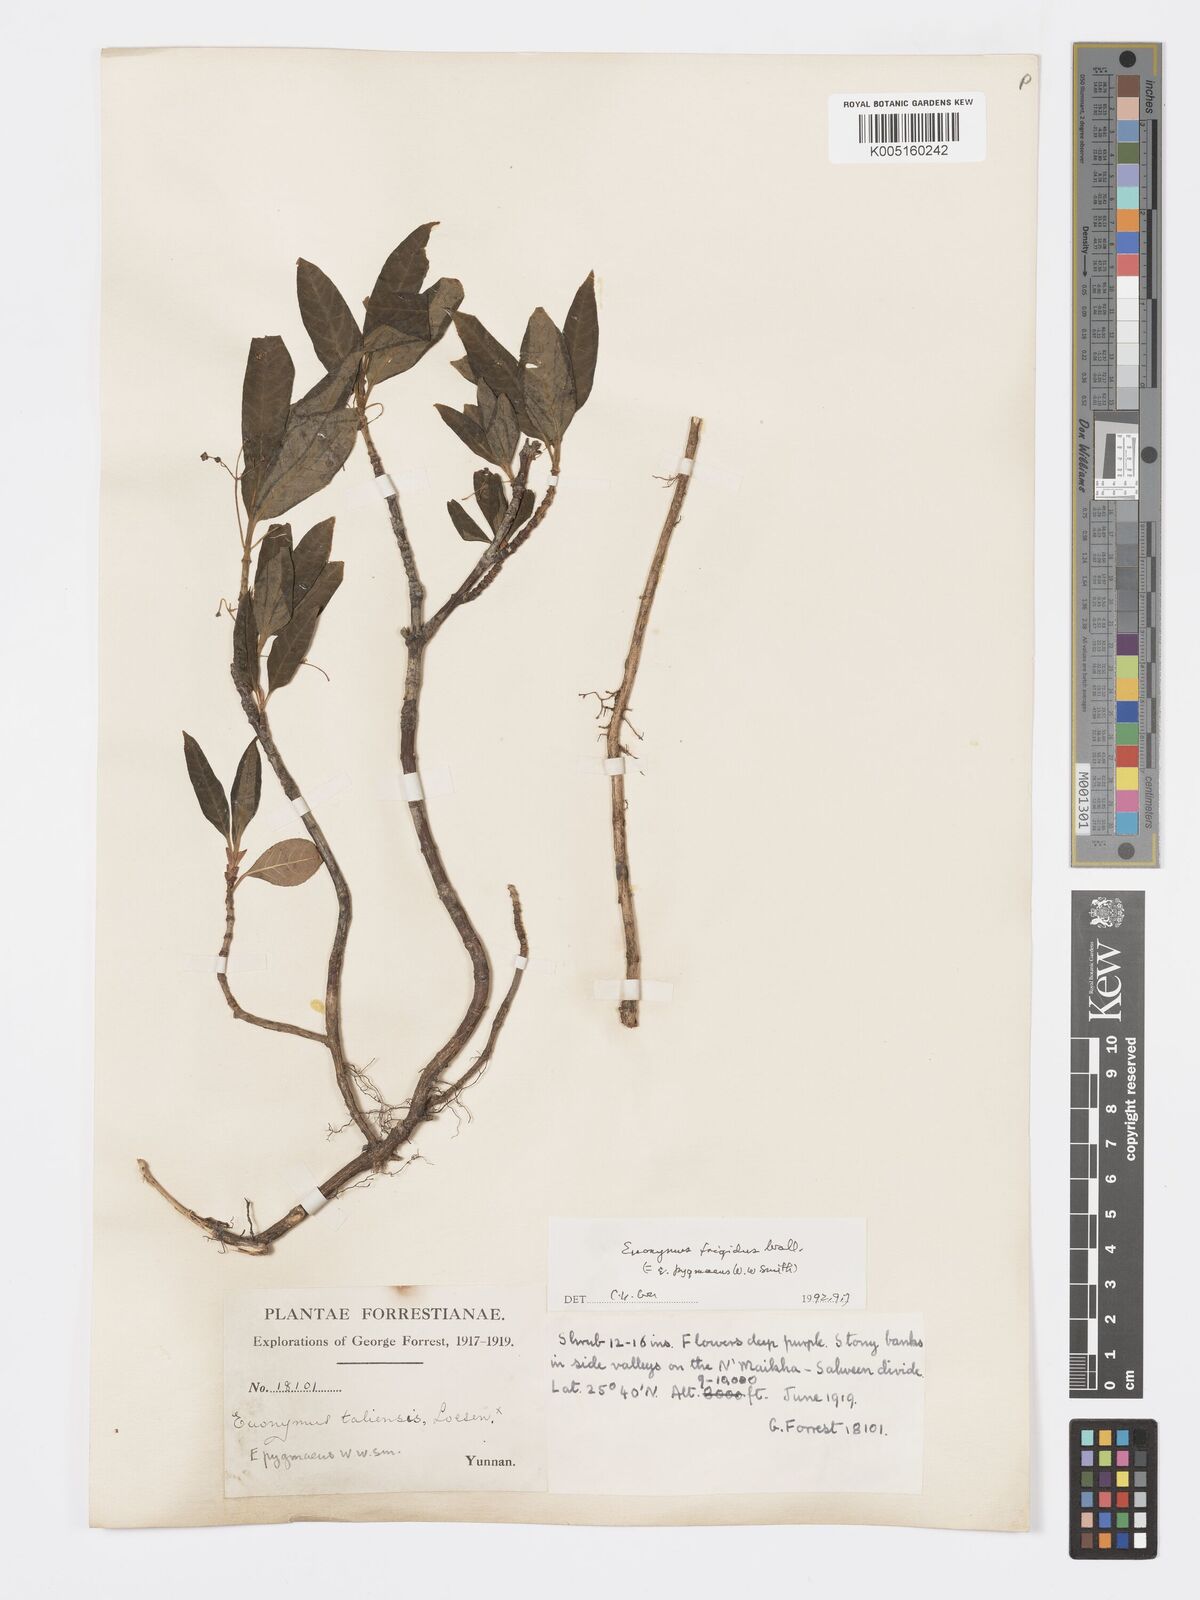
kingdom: Plantae
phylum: Tracheophyta
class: Magnoliopsida
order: Celastrales
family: Celastraceae
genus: Euonymus
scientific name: Euonymus frigidus
